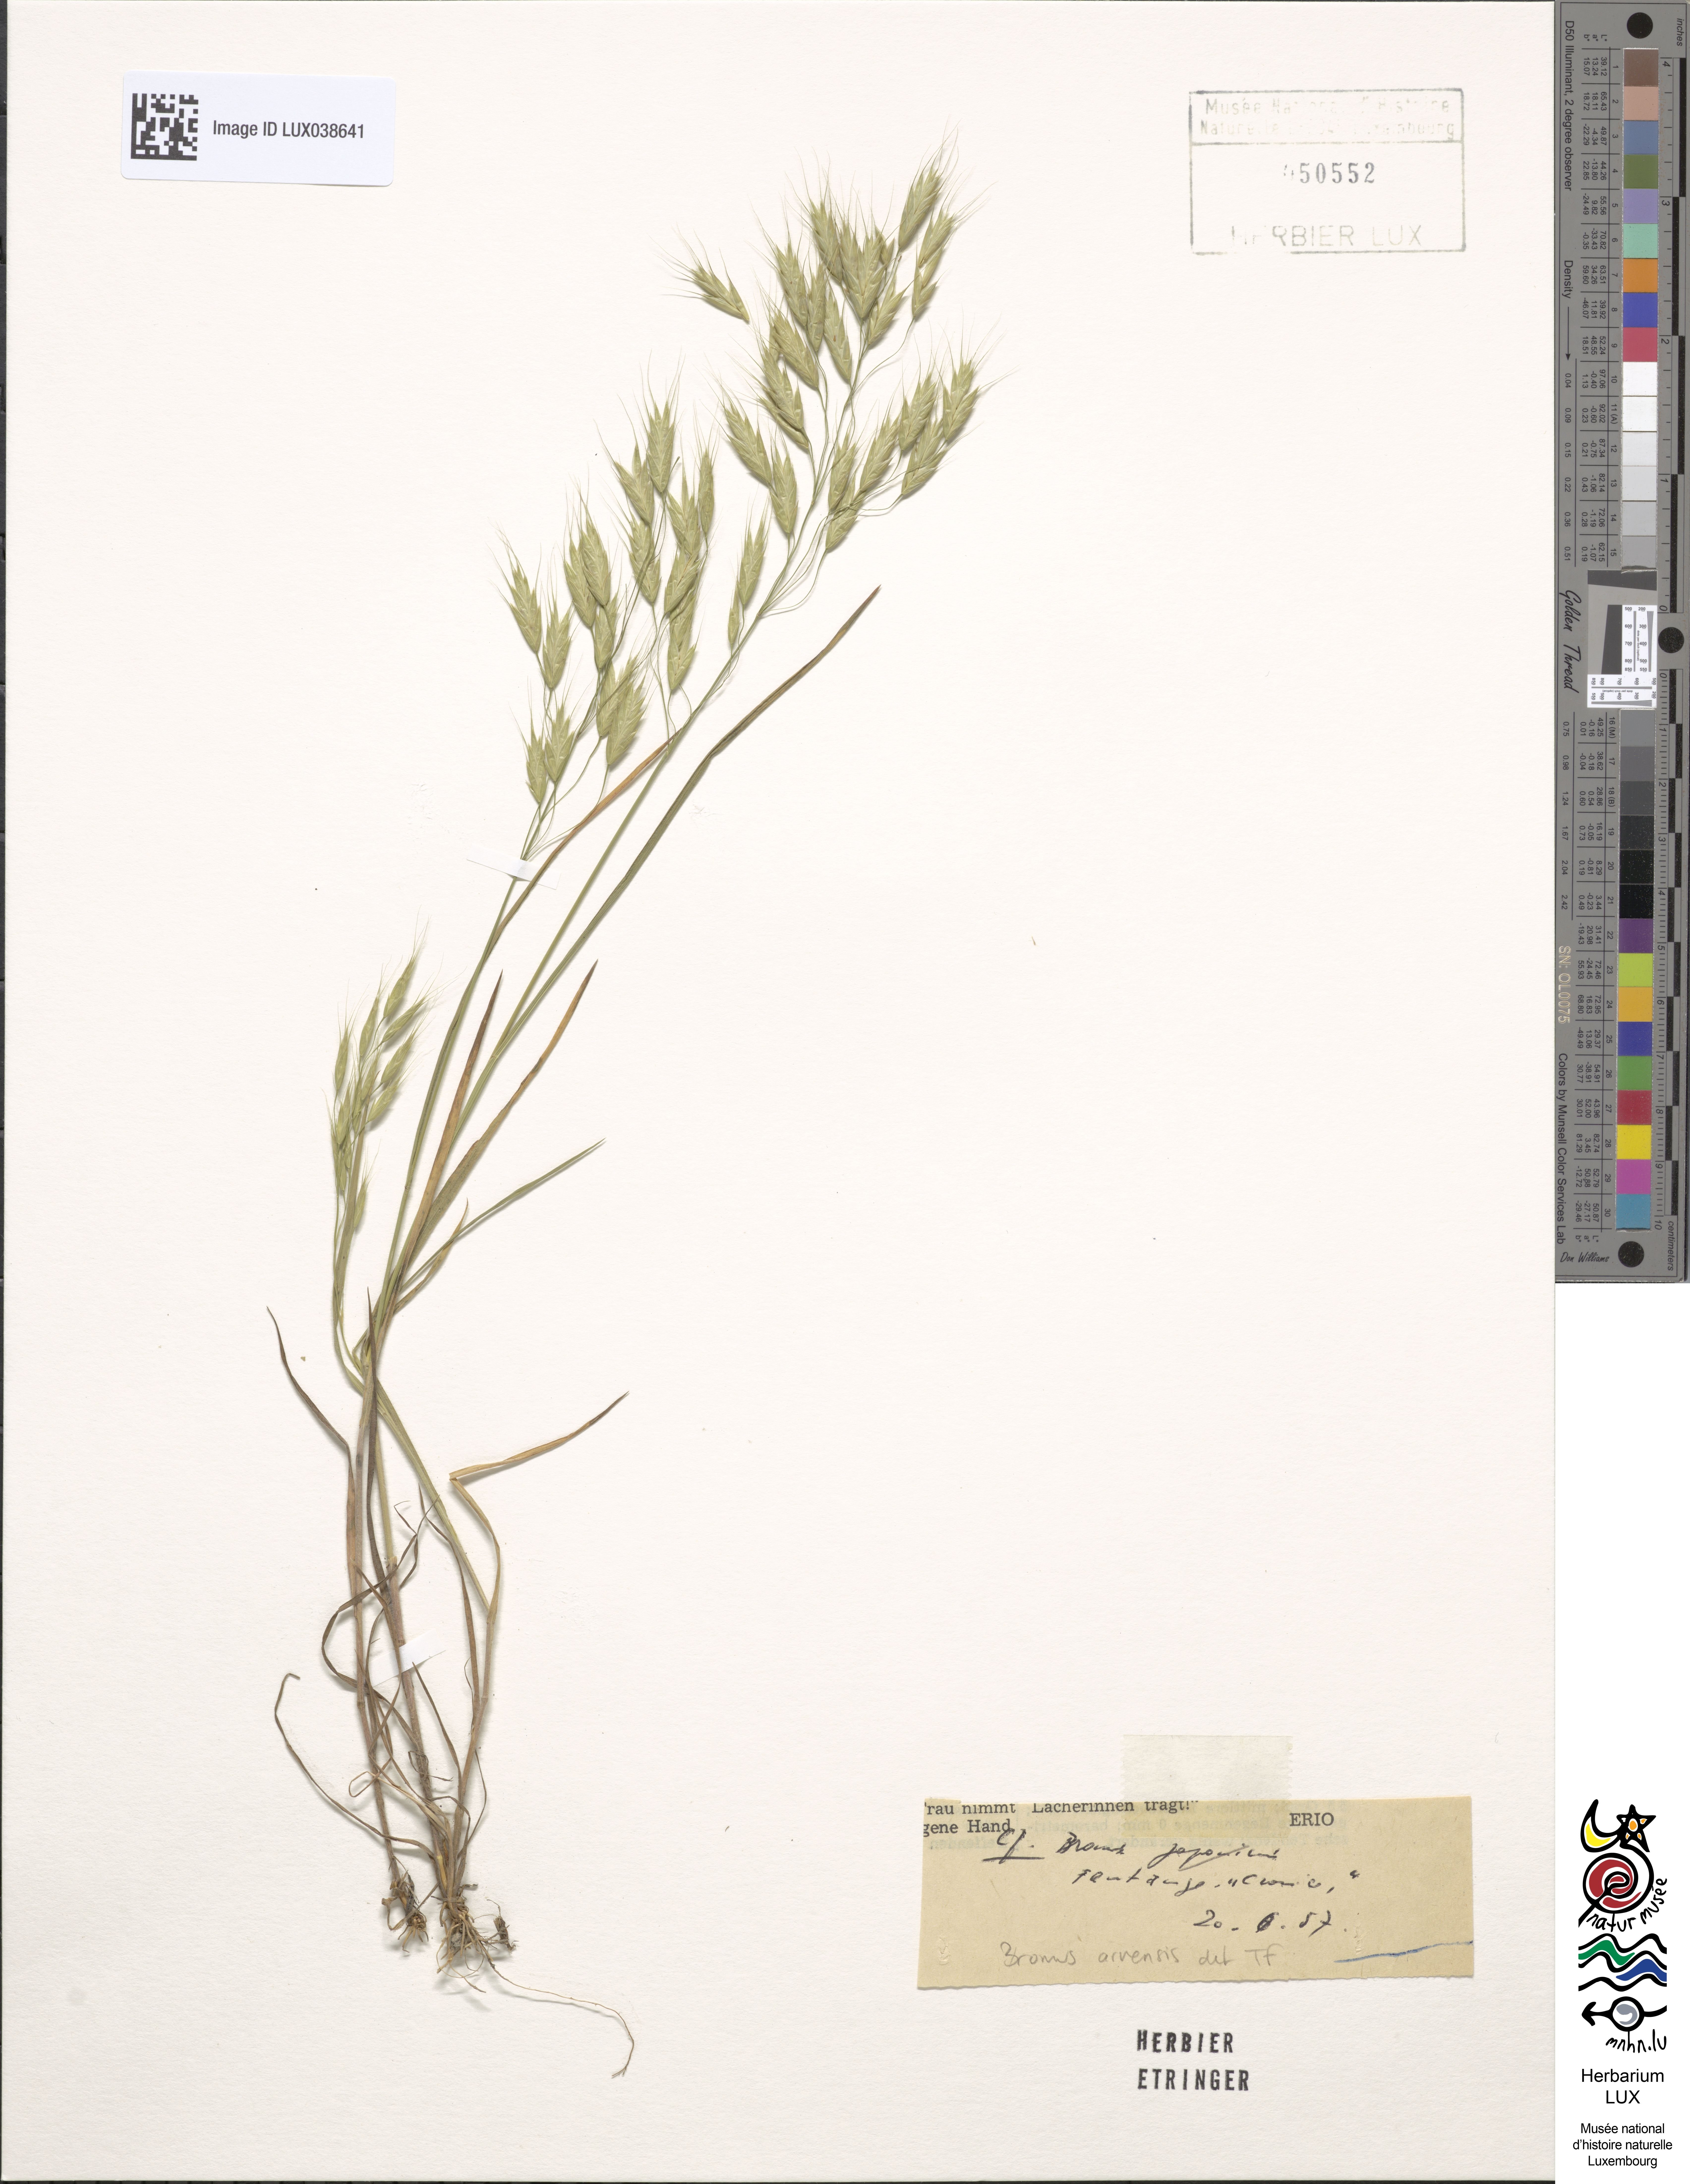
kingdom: Plantae
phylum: Tracheophyta
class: Liliopsida
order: Poales
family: Poaceae
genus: Bromus
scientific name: Bromus arvensis
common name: Field brome
